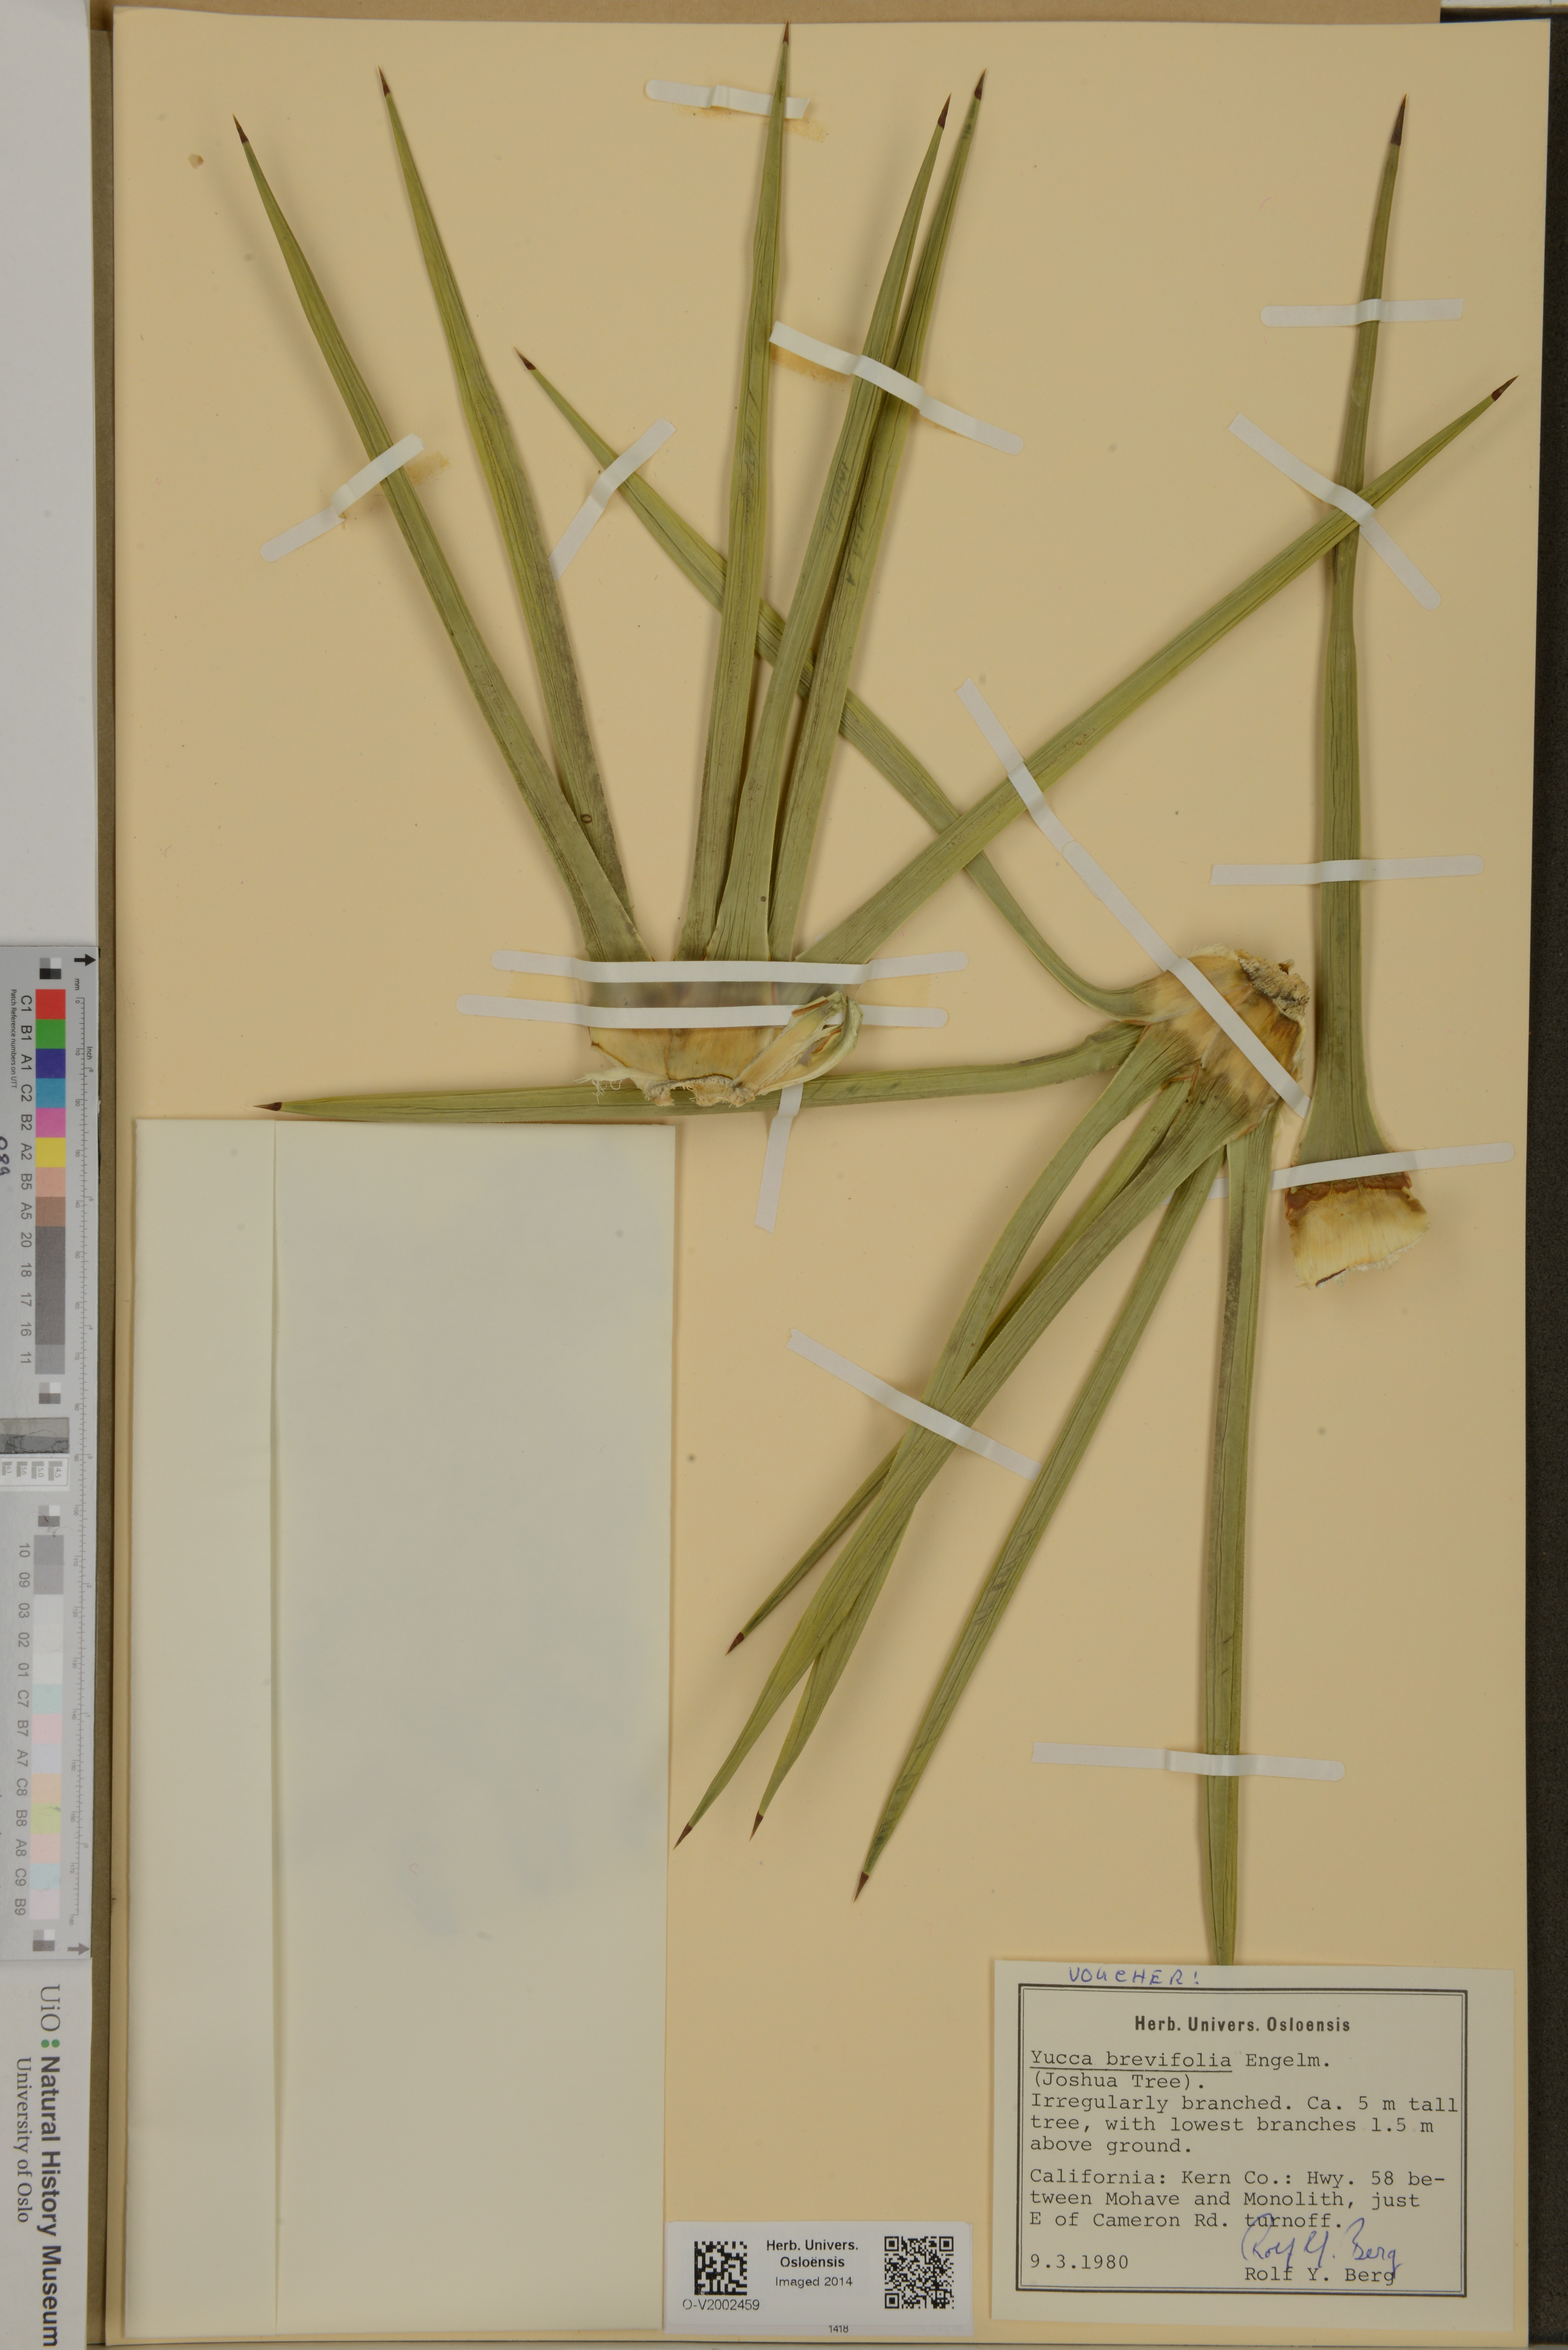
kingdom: Plantae
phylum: Tracheophyta
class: Liliopsida
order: Asparagales
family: Asparagaceae
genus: Yucca
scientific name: Yucca brevifolia
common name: Joshua tree
